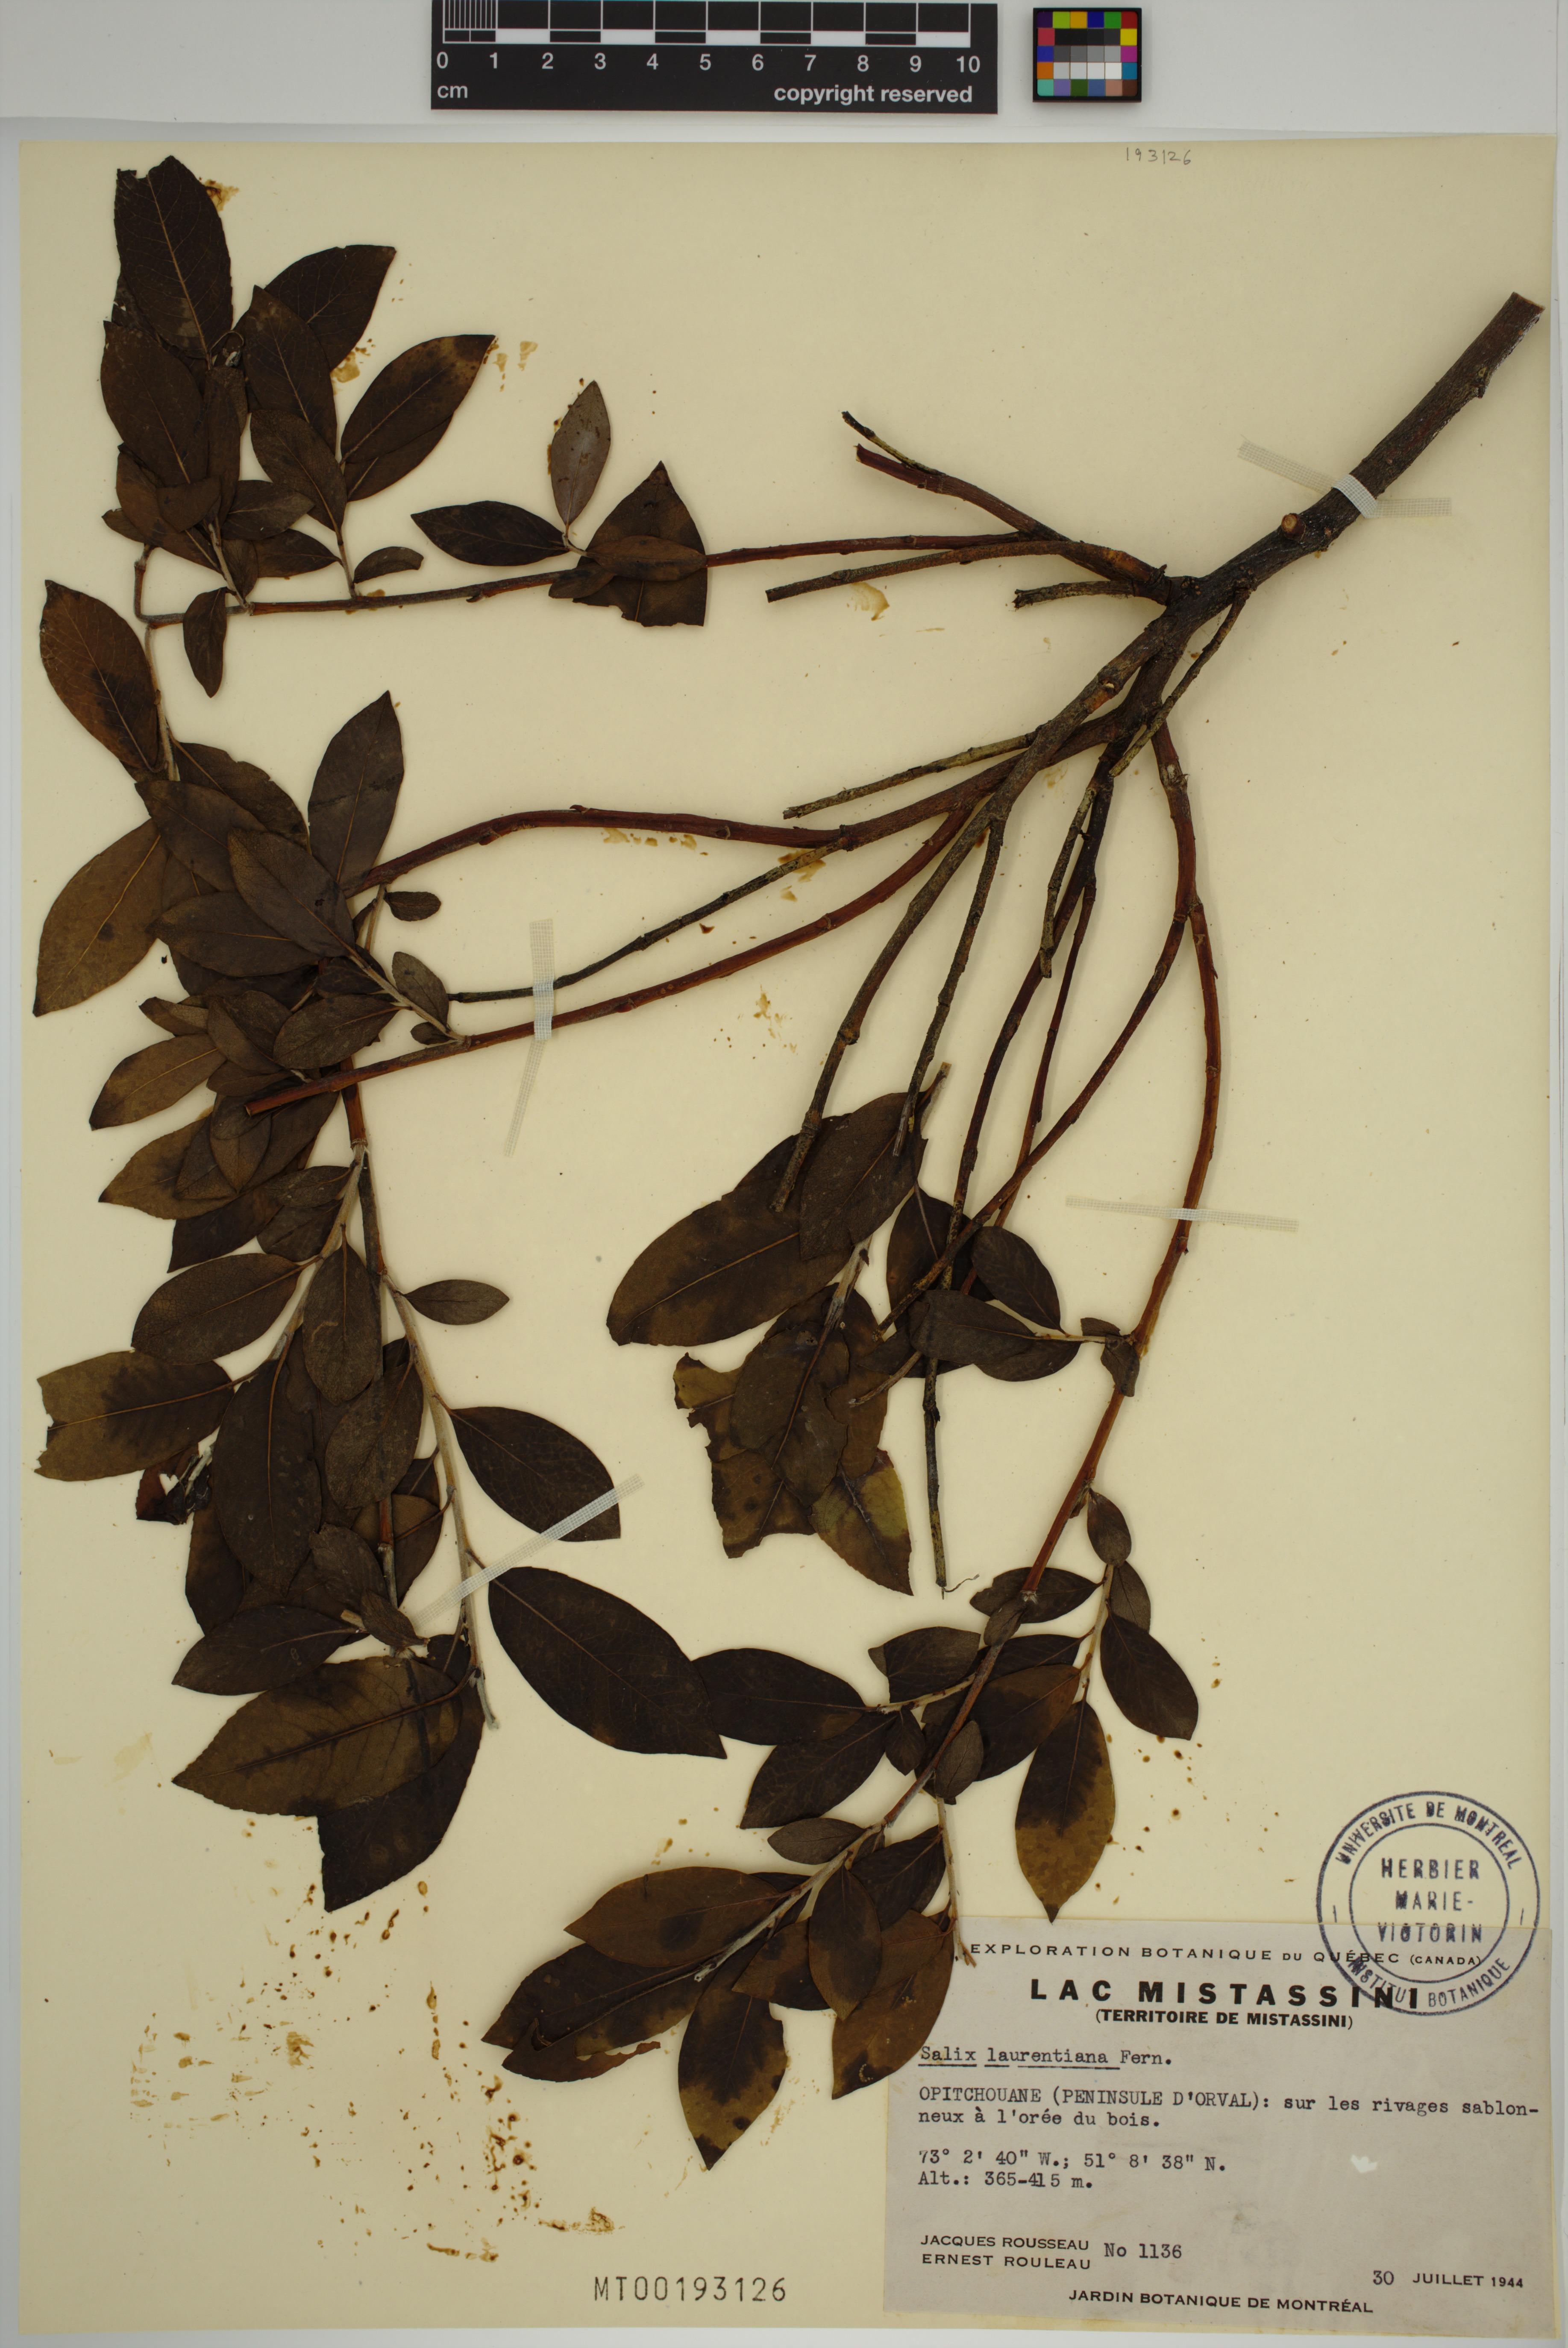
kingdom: Plantae
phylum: Tracheophyta
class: Magnoliopsida
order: Malpighiales
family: Salicaceae
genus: Salix
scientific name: Salix laurentiana
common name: Gulf of st. lawrence willow
